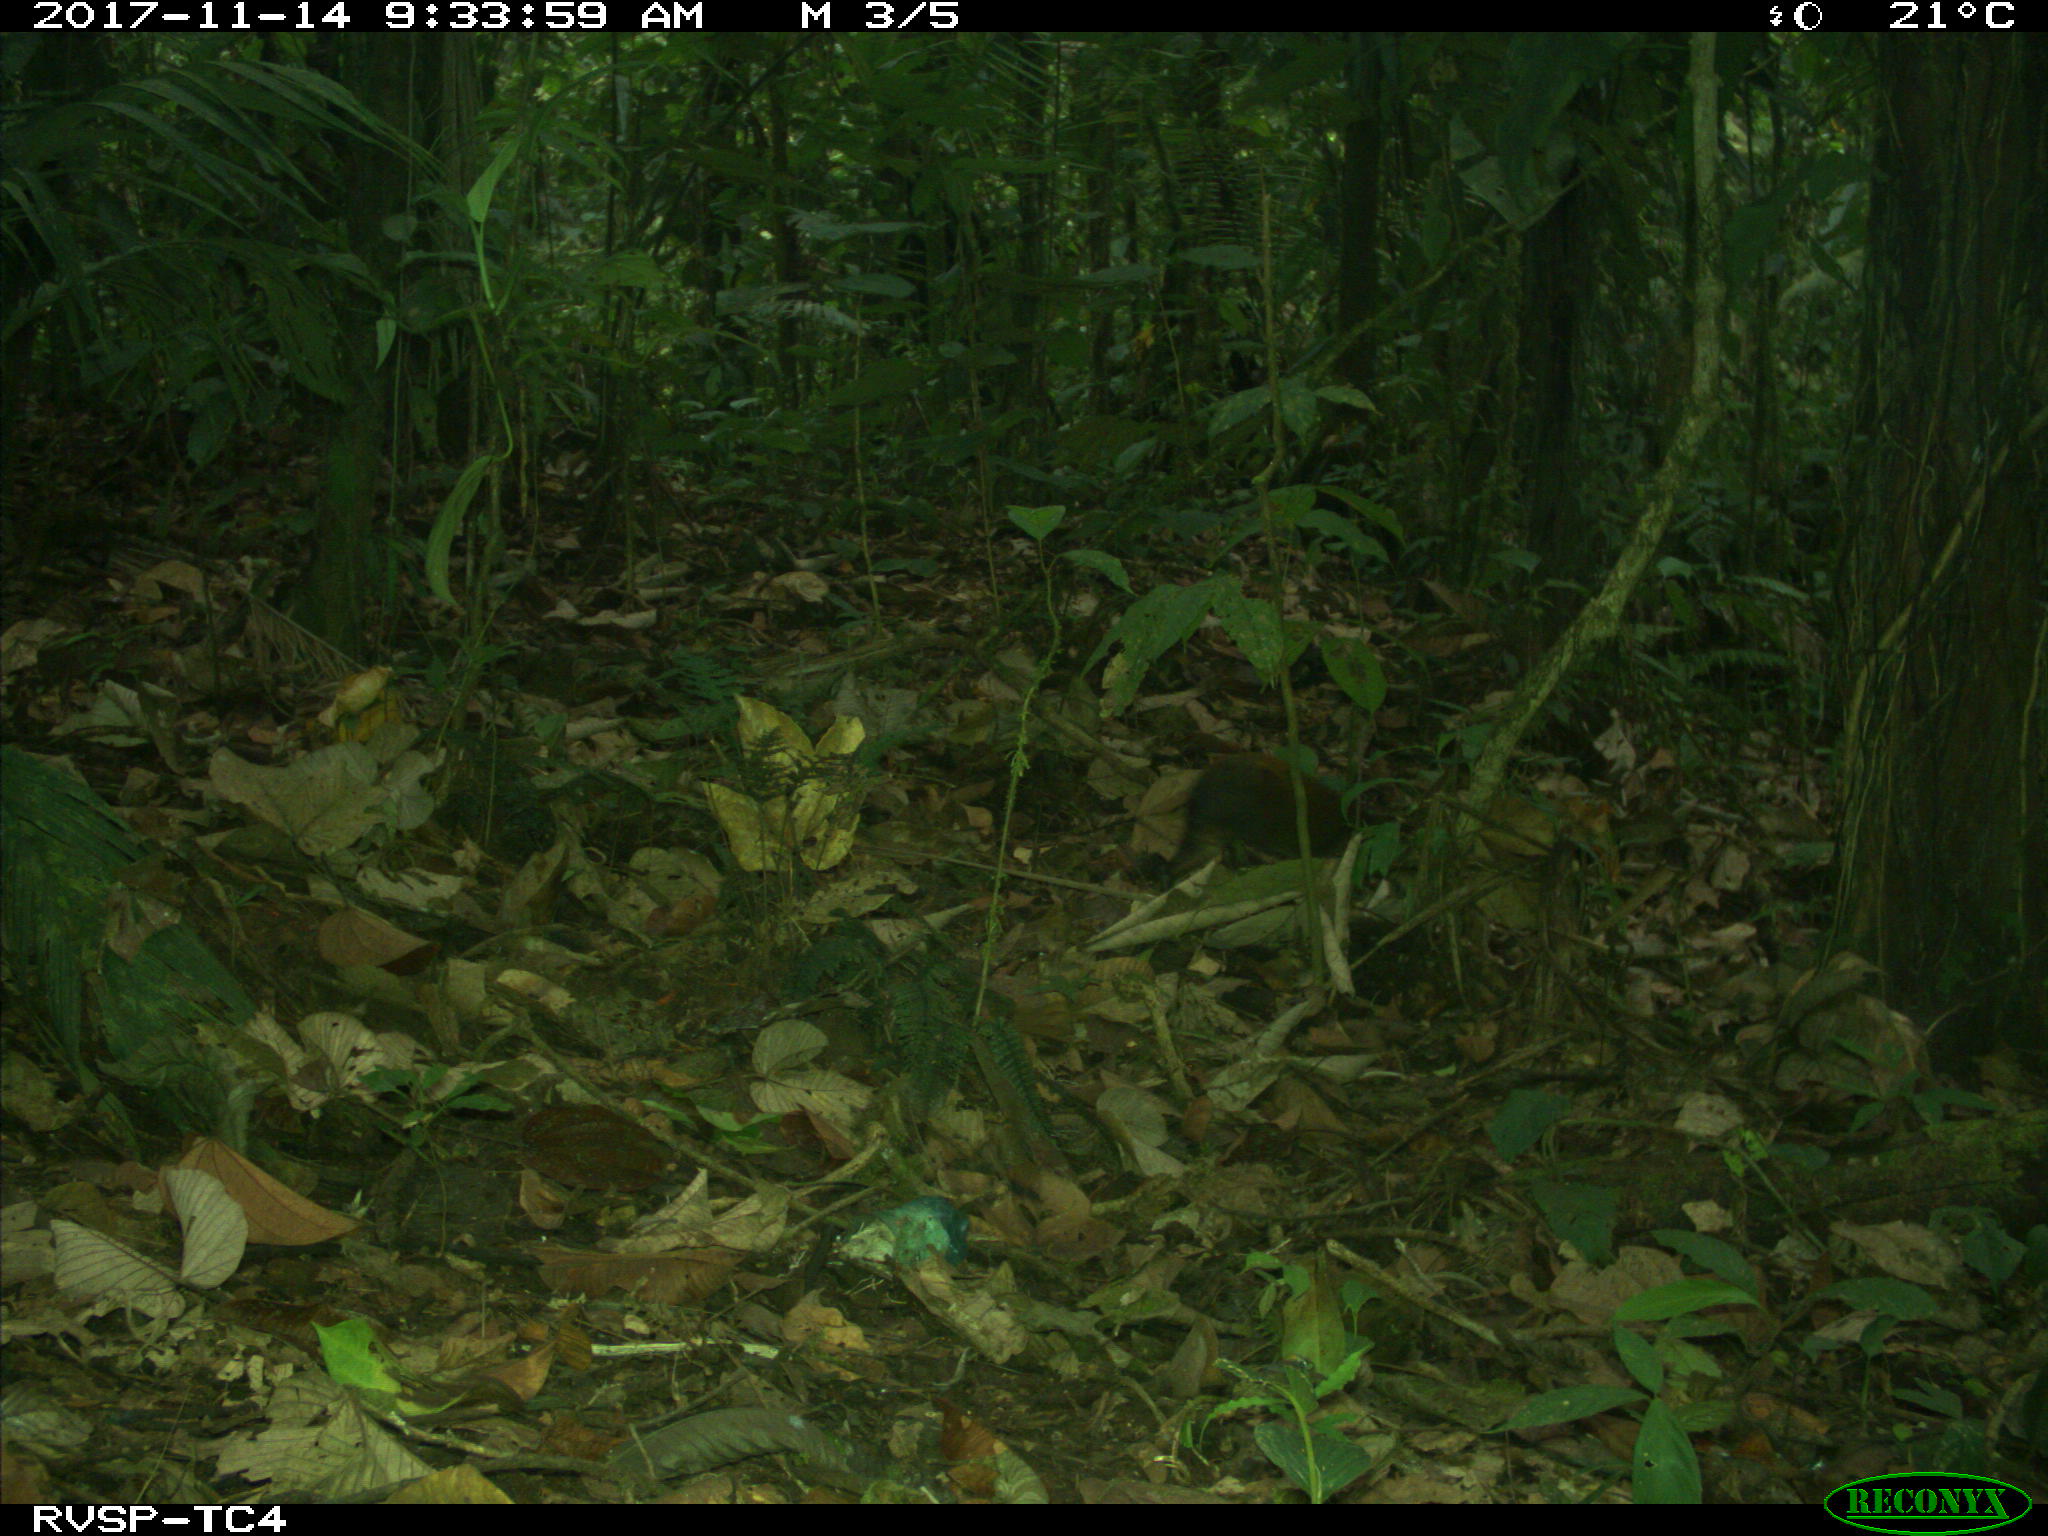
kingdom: Animalia
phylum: Chordata
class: Mammalia
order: Rodentia
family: Dasyproctidae
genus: Dasyprocta
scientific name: Dasyprocta punctata
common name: Central american agouti
